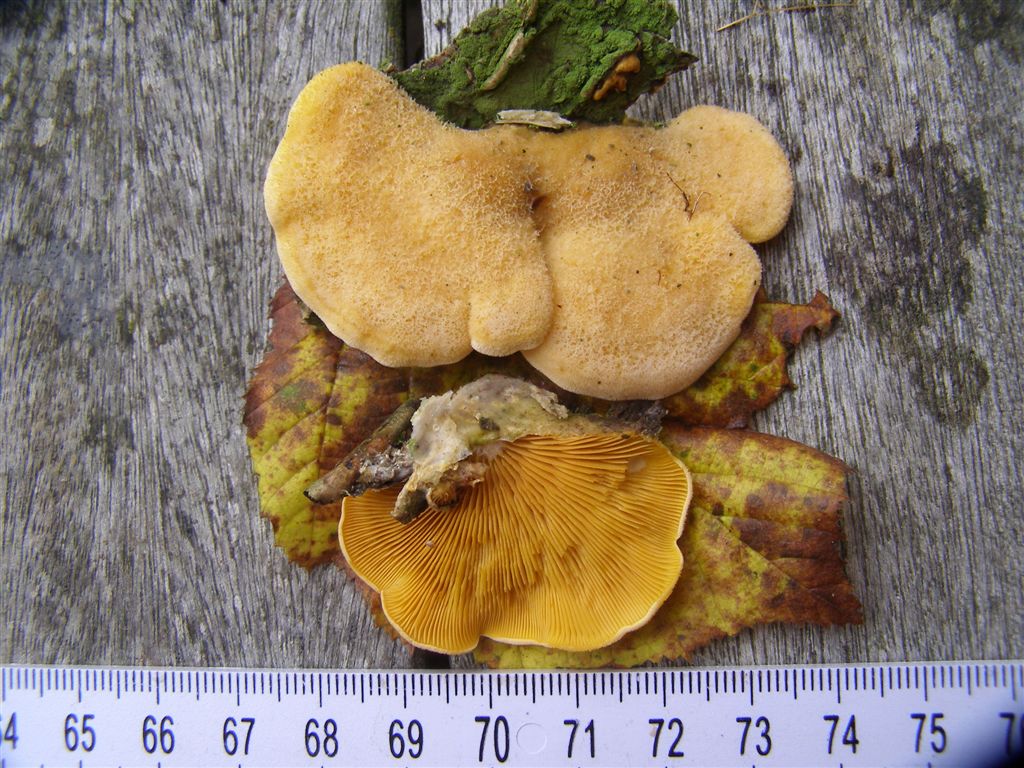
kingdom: Fungi
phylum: Basidiomycota
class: Agaricomycetes
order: Agaricales
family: Phyllotopsidaceae
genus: Phyllotopsis
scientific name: Phyllotopsis nidulans
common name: okkerblad
